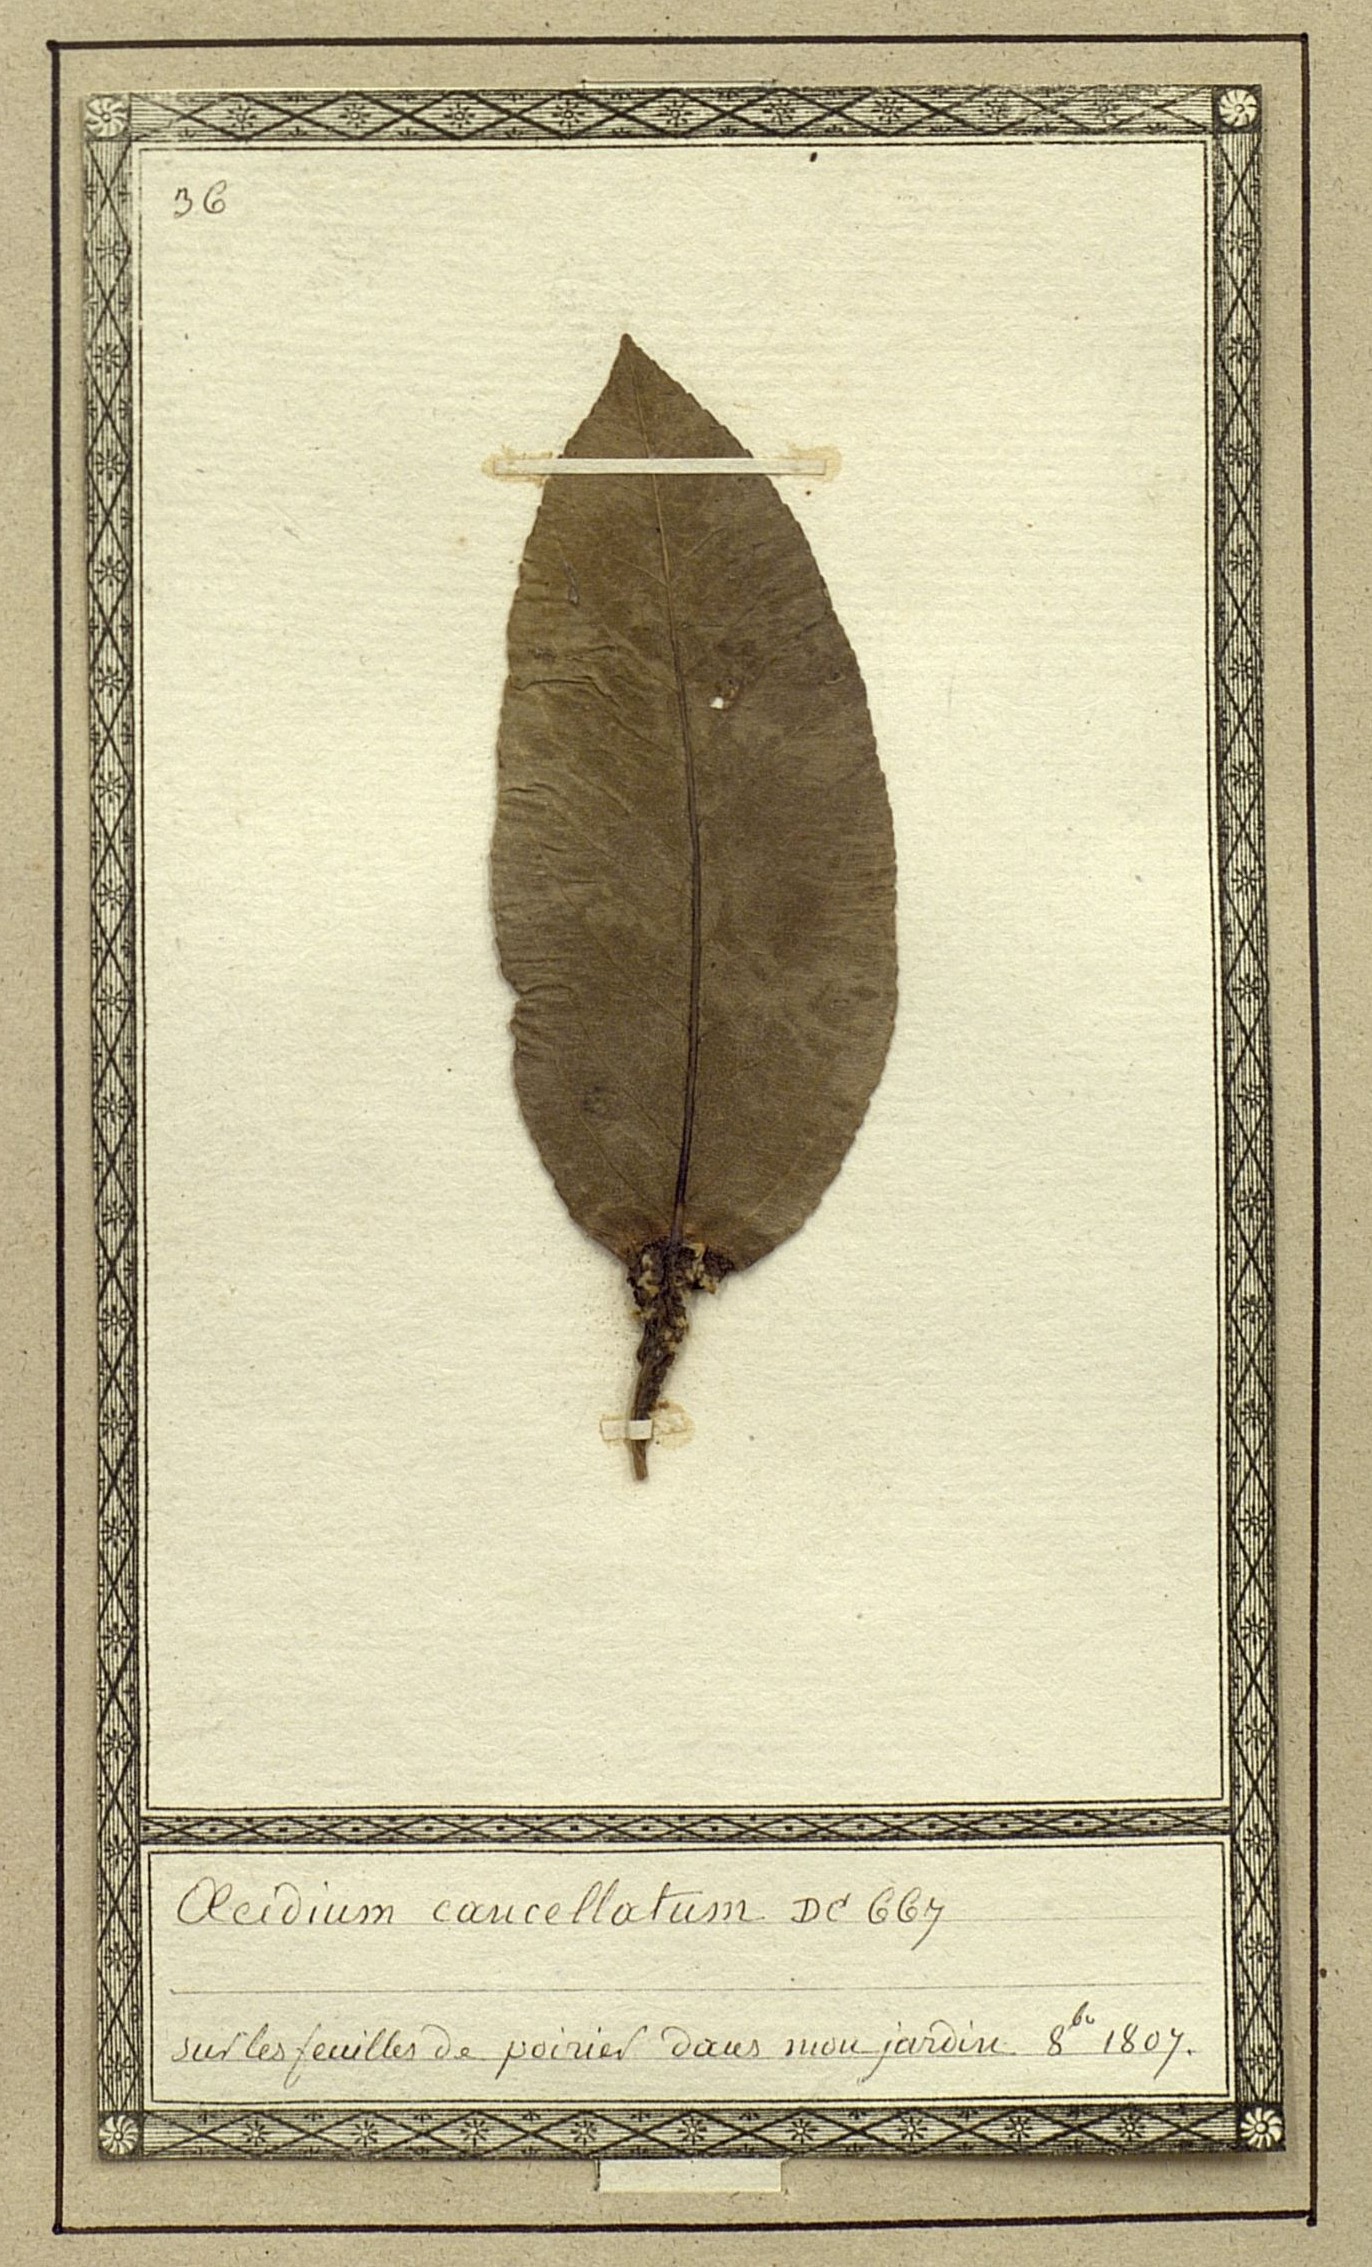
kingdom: Fungi
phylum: Basidiomycota
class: Pucciniomycetes
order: Pucciniales
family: Gymnosporangiaceae
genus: Gymnosporangium
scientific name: Gymnosporangium sabinae
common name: Pear trellis rust fungus
